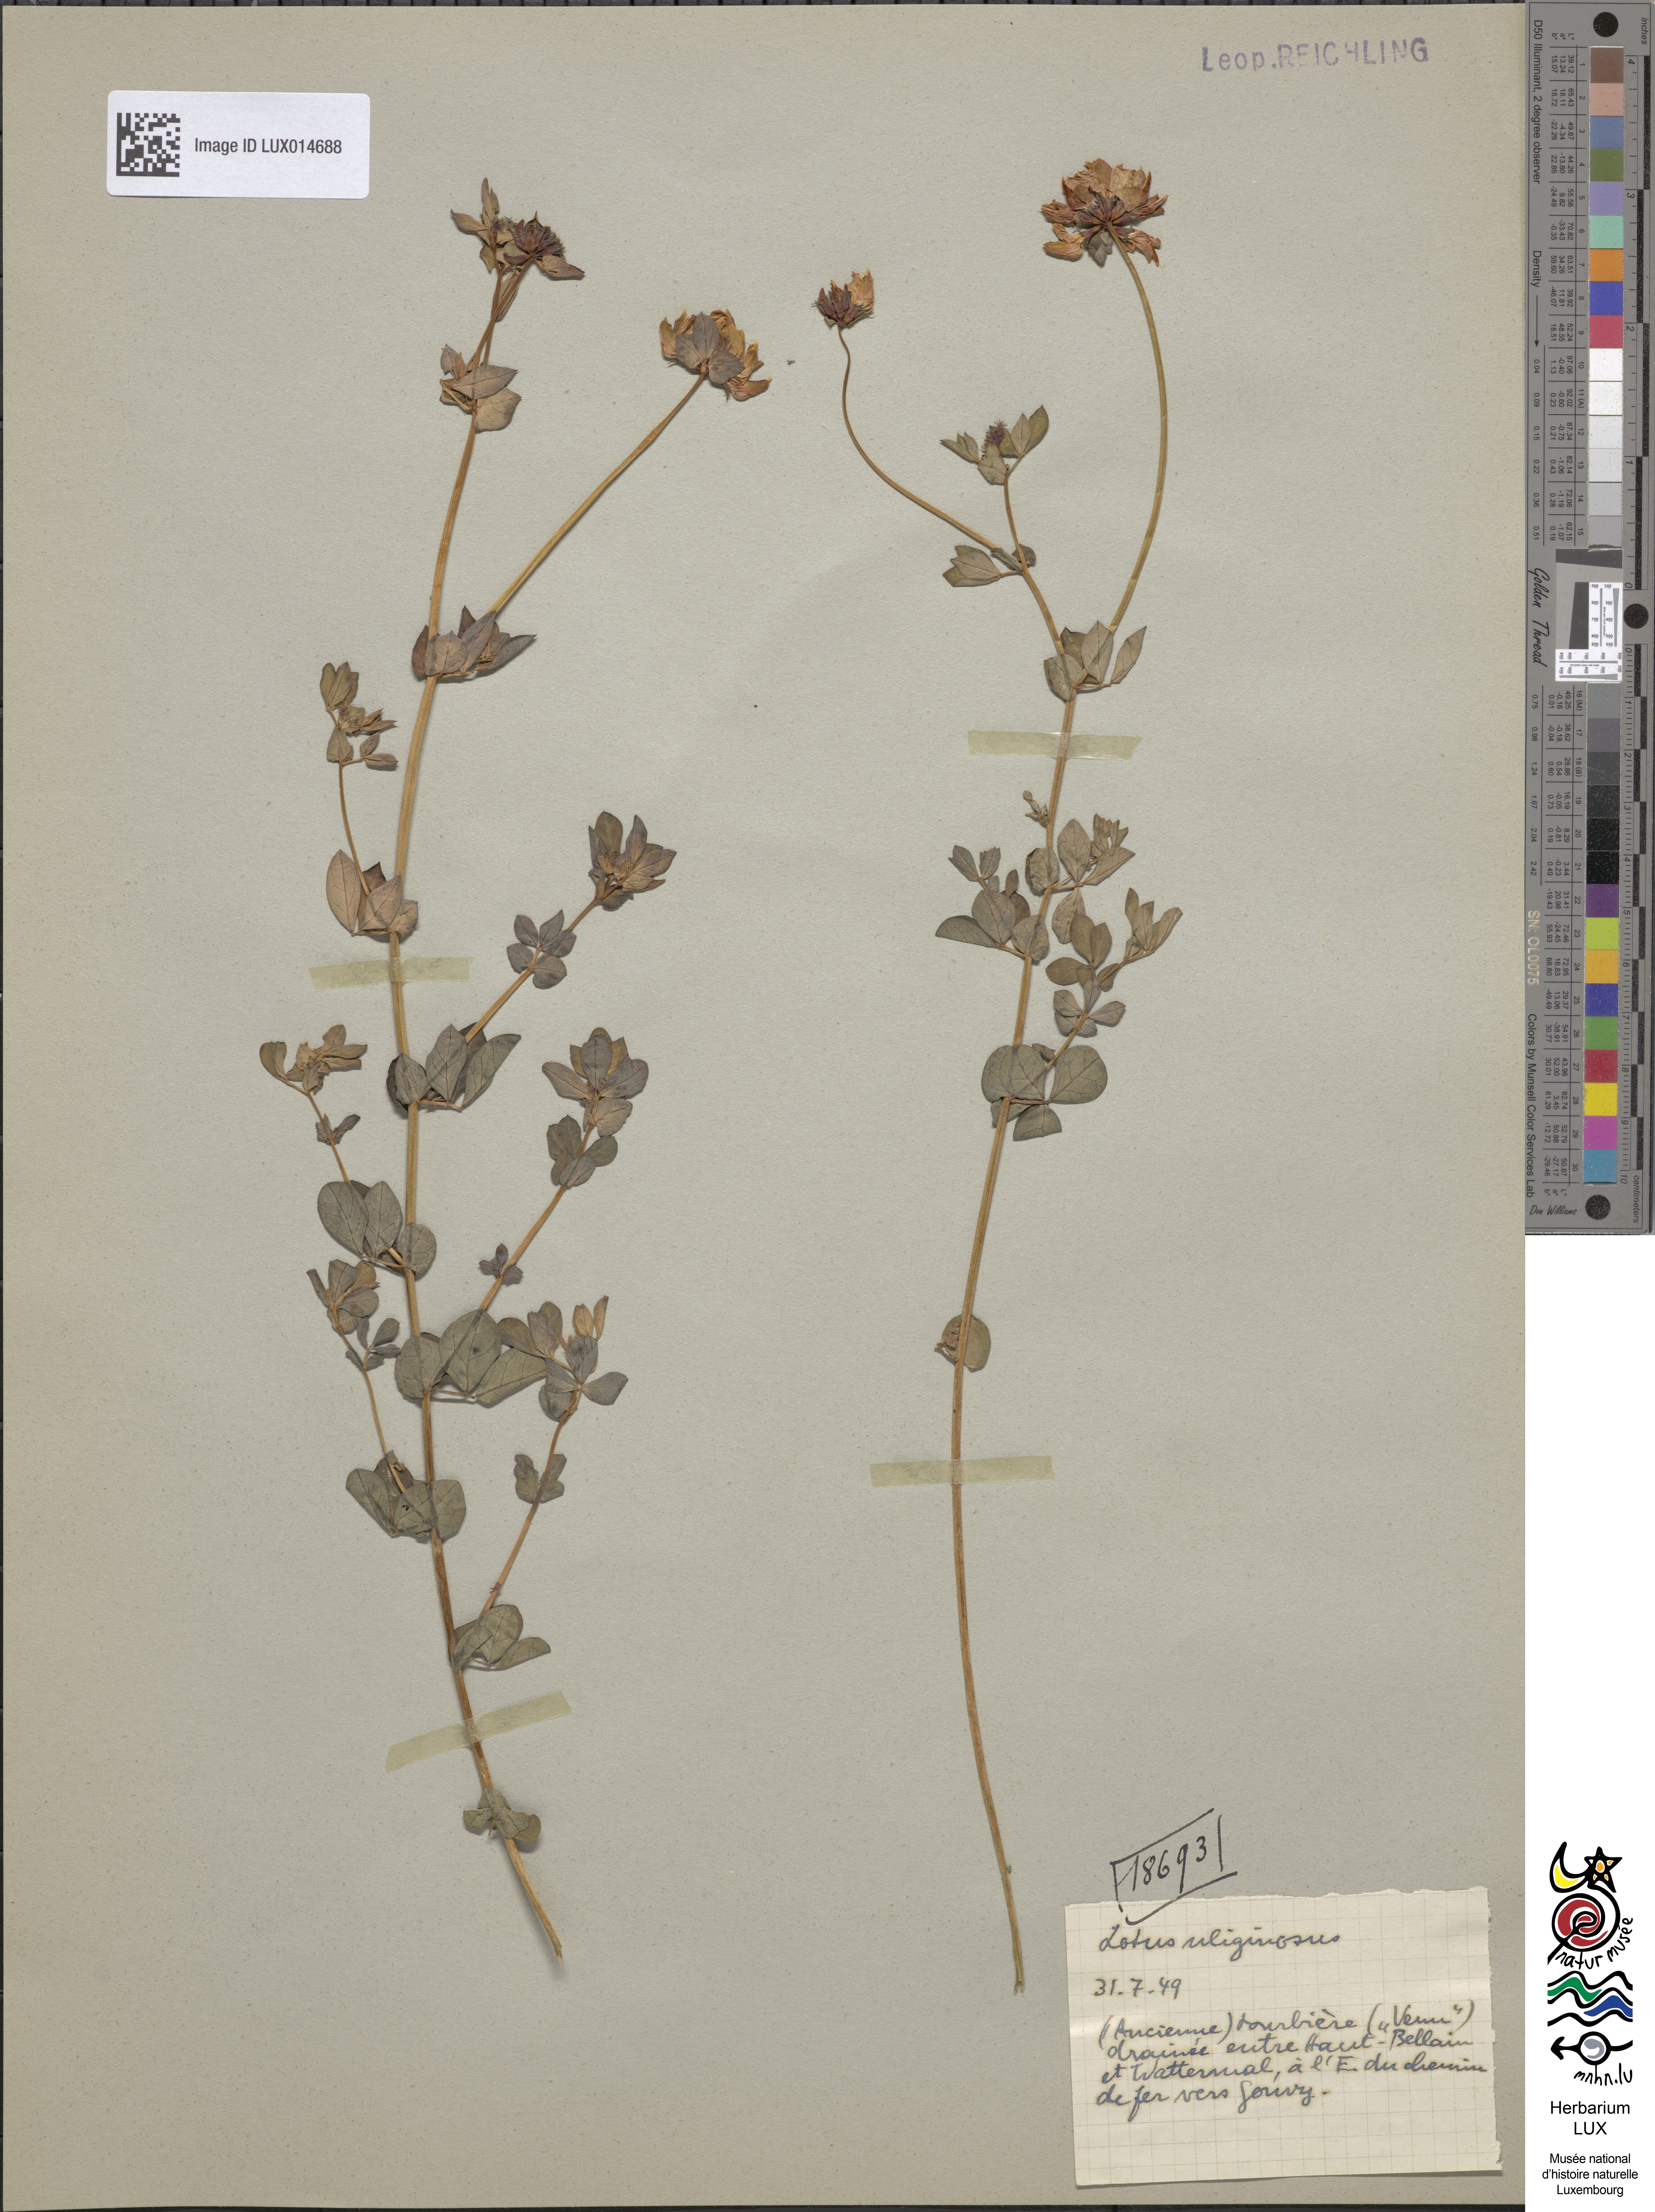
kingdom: Plantae
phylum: Tracheophyta
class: Magnoliopsida
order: Fabales
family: Fabaceae
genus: Lotus
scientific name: Lotus pedunculatus
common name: Greater birdsfoot-trefoil
